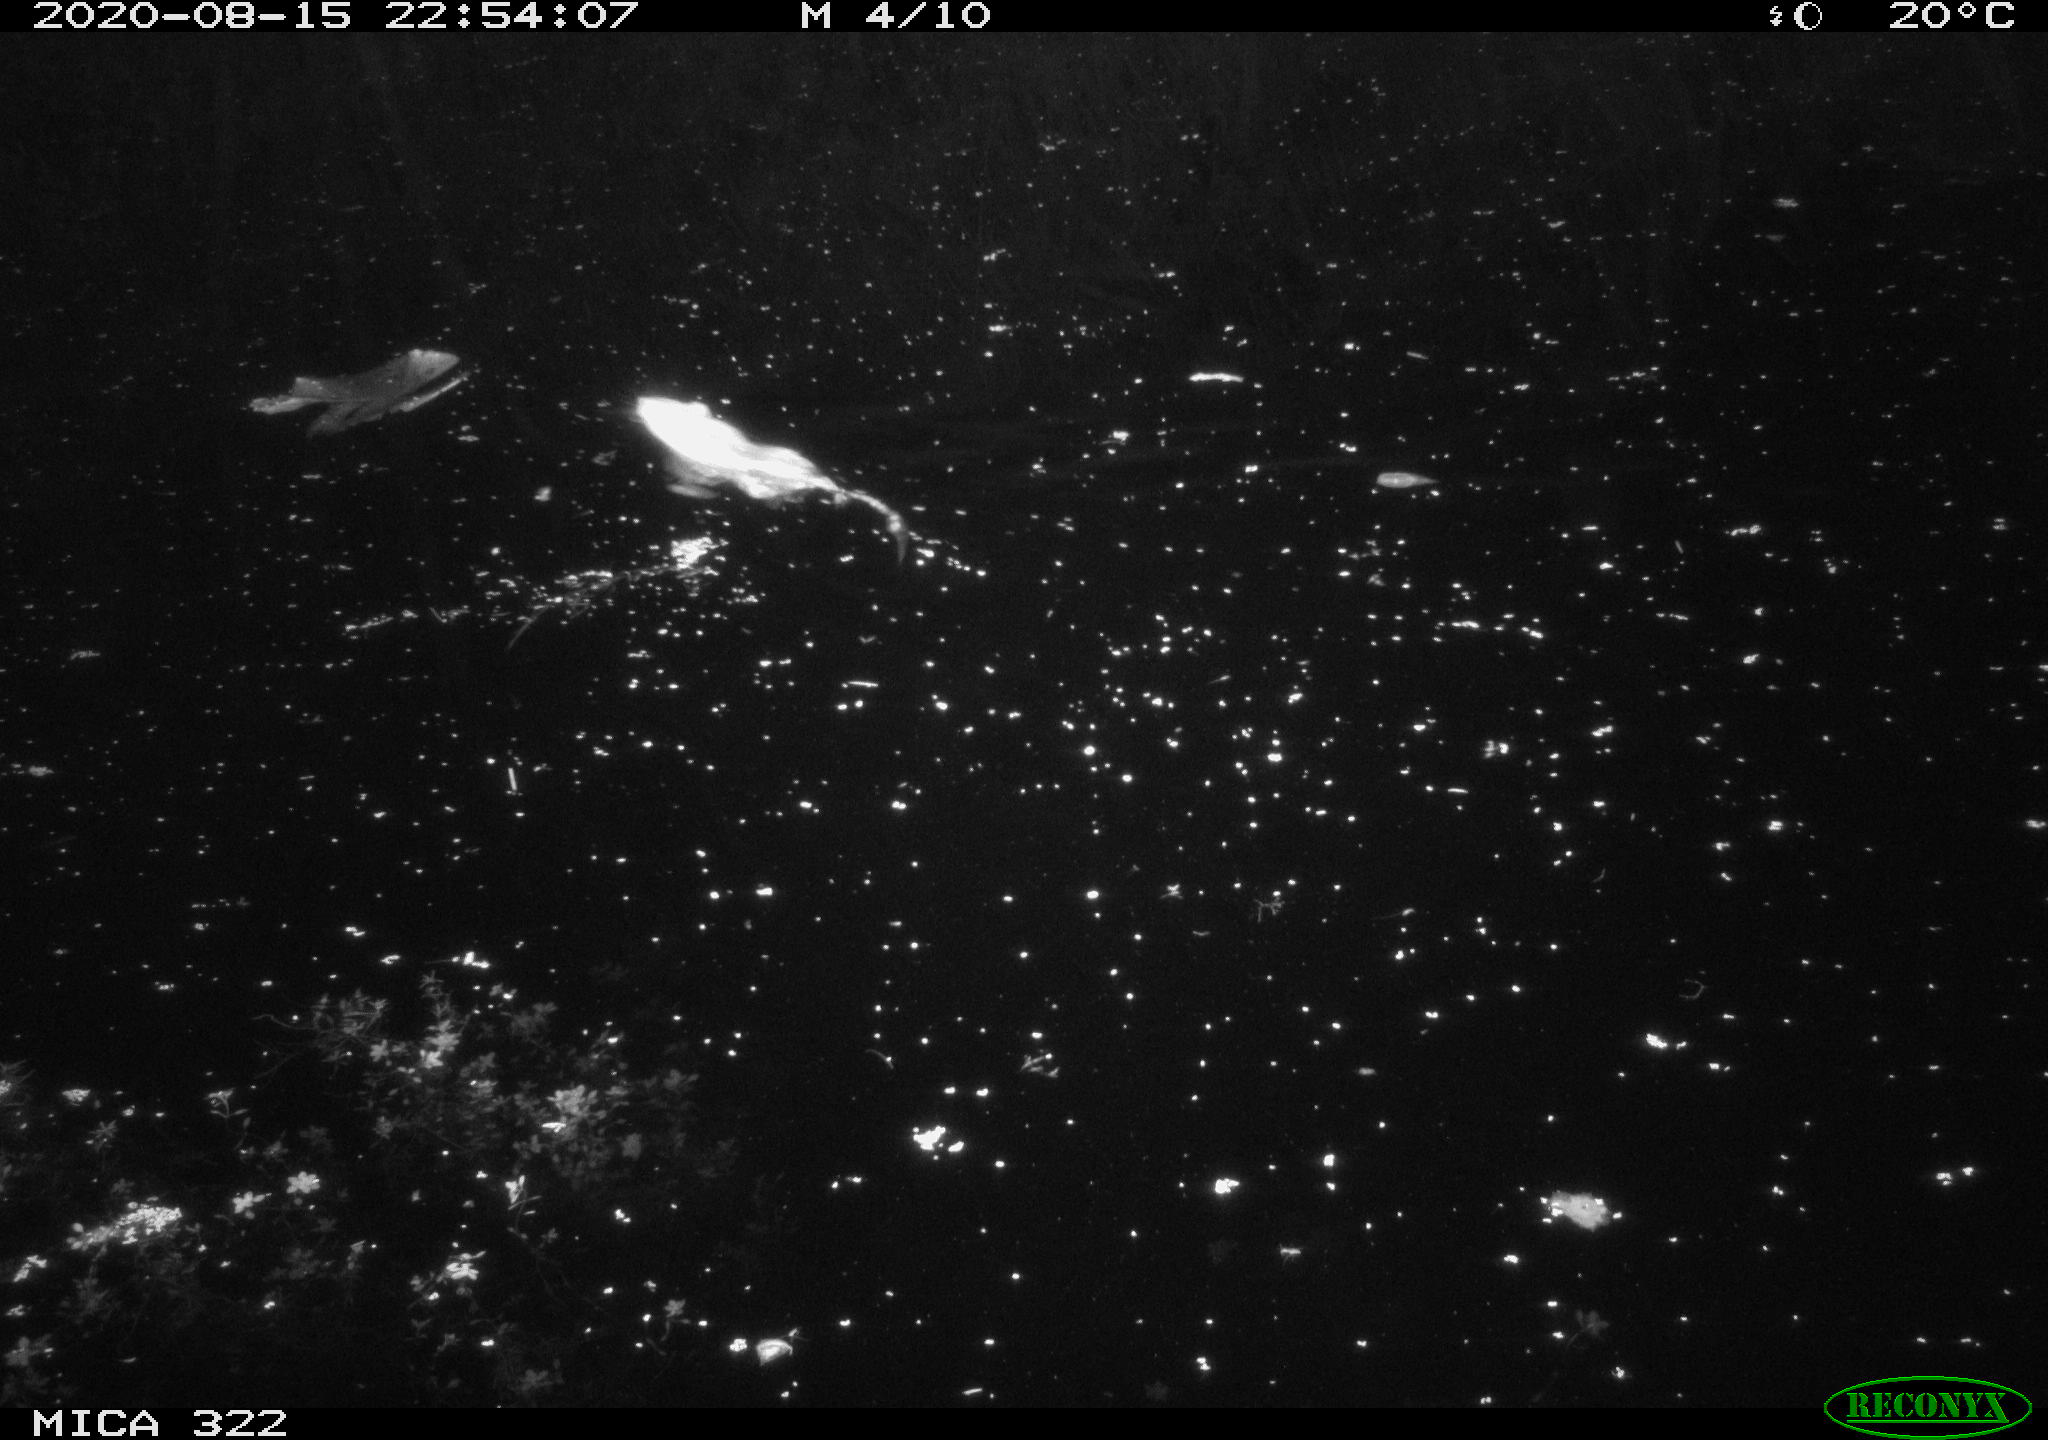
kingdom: Animalia
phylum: Chordata
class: Mammalia
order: Rodentia
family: Muridae
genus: Rattus
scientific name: Rattus norvegicus
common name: Brown rat
